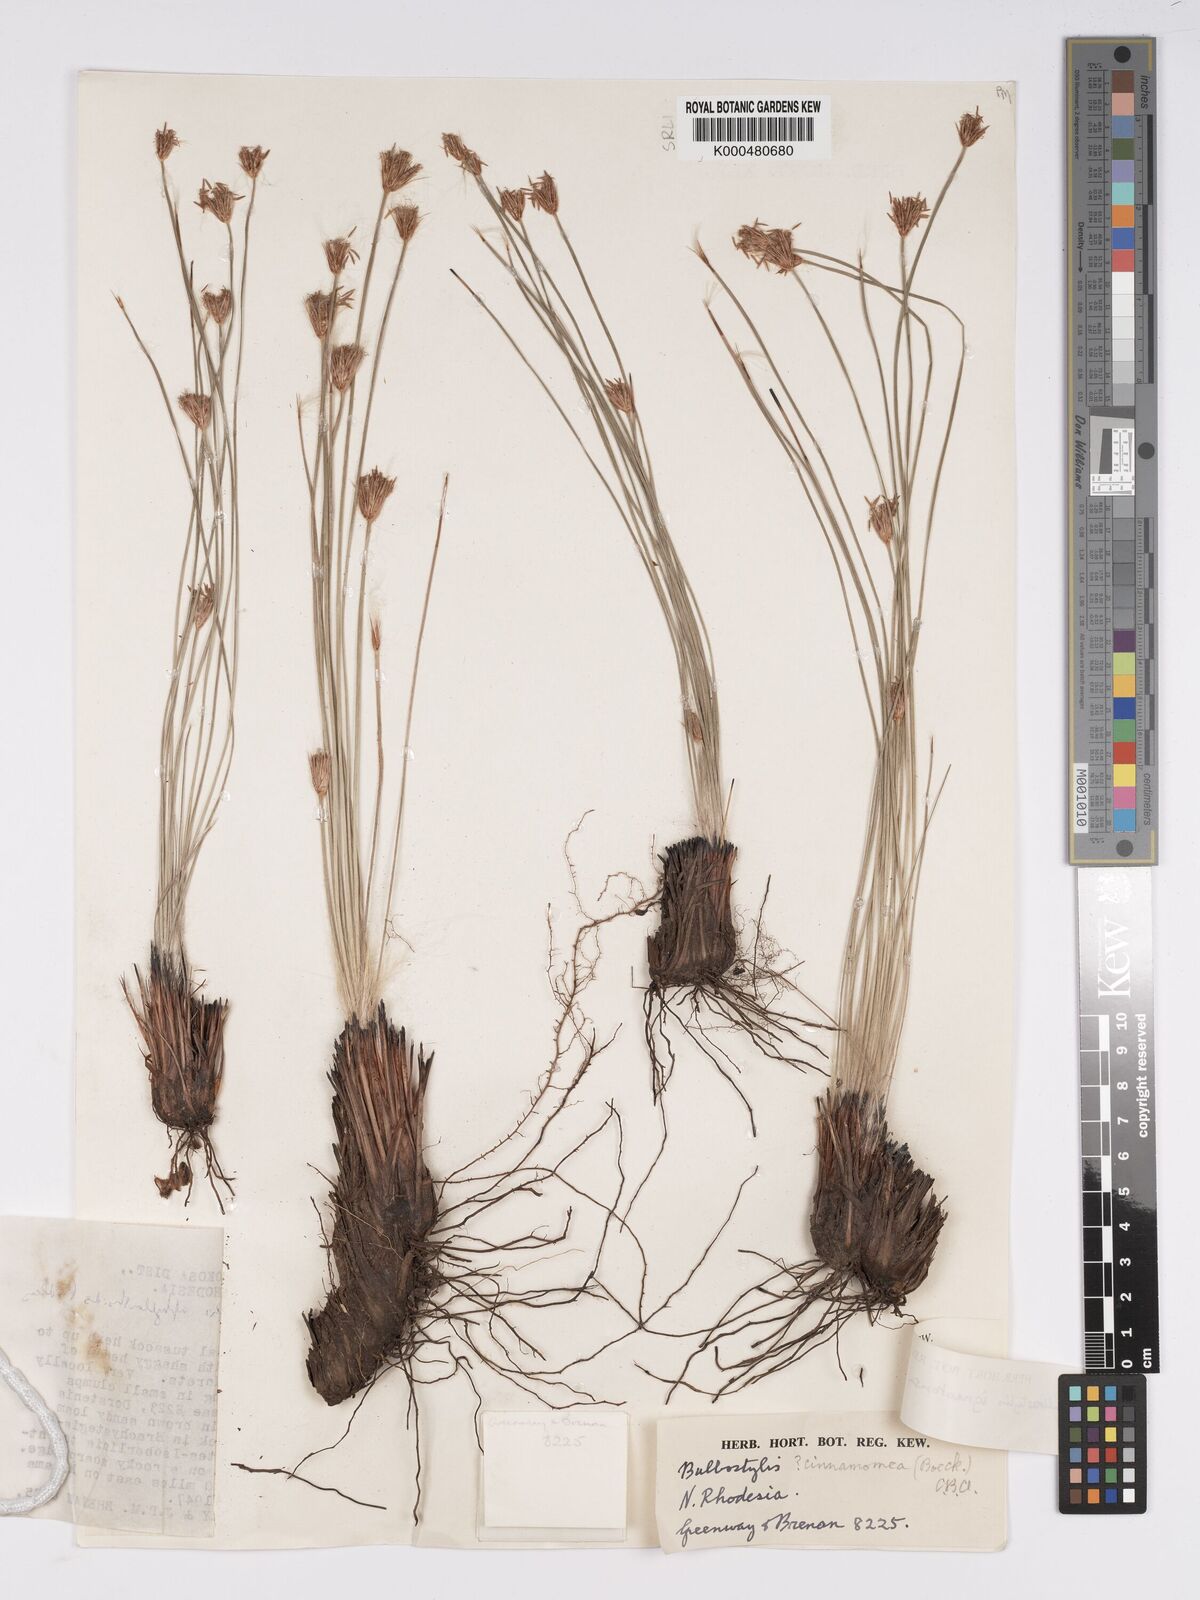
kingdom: Plantae
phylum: Tracheophyta
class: Liliopsida
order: Poales
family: Cyperaceae
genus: Bulbostylis
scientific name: Bulbostylis igneotonsa
